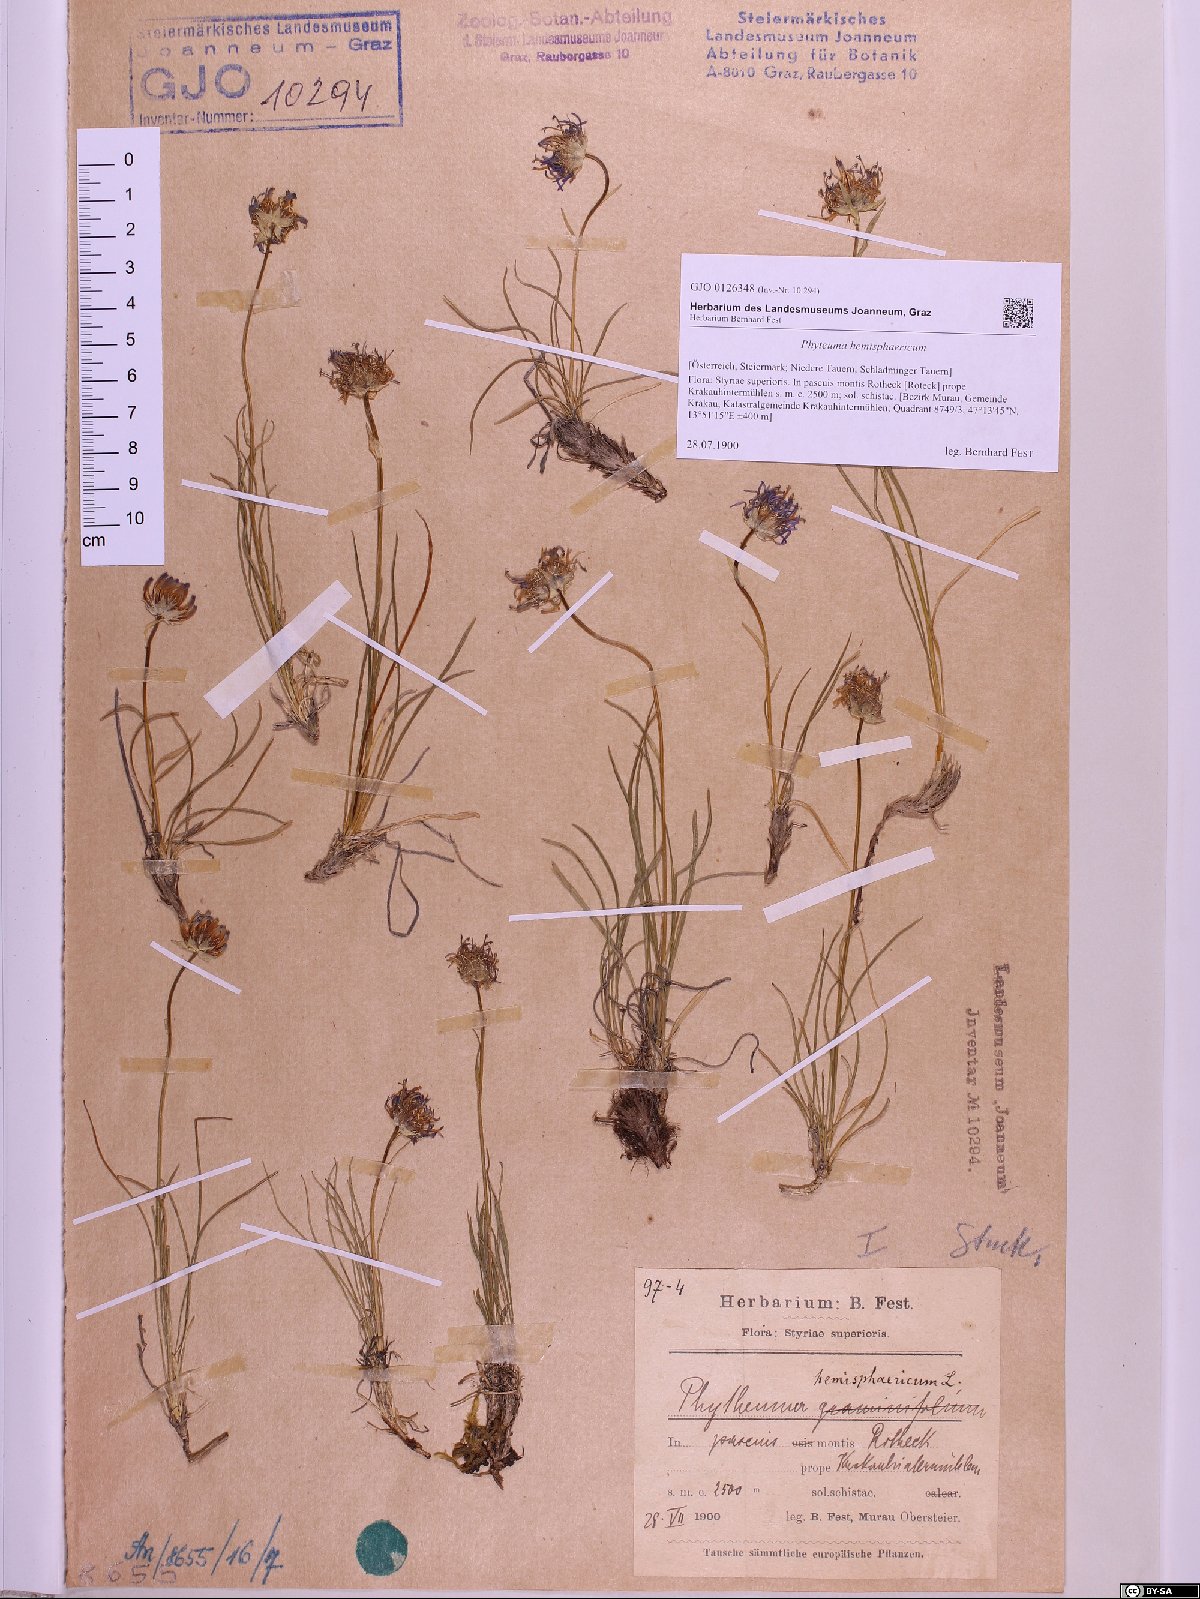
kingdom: Plantae
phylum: Tracheophyta
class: Magnoliopsida
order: Asterales
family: Campanulaceae
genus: Phyteuma
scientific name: Phyteuma hemisphaericum
